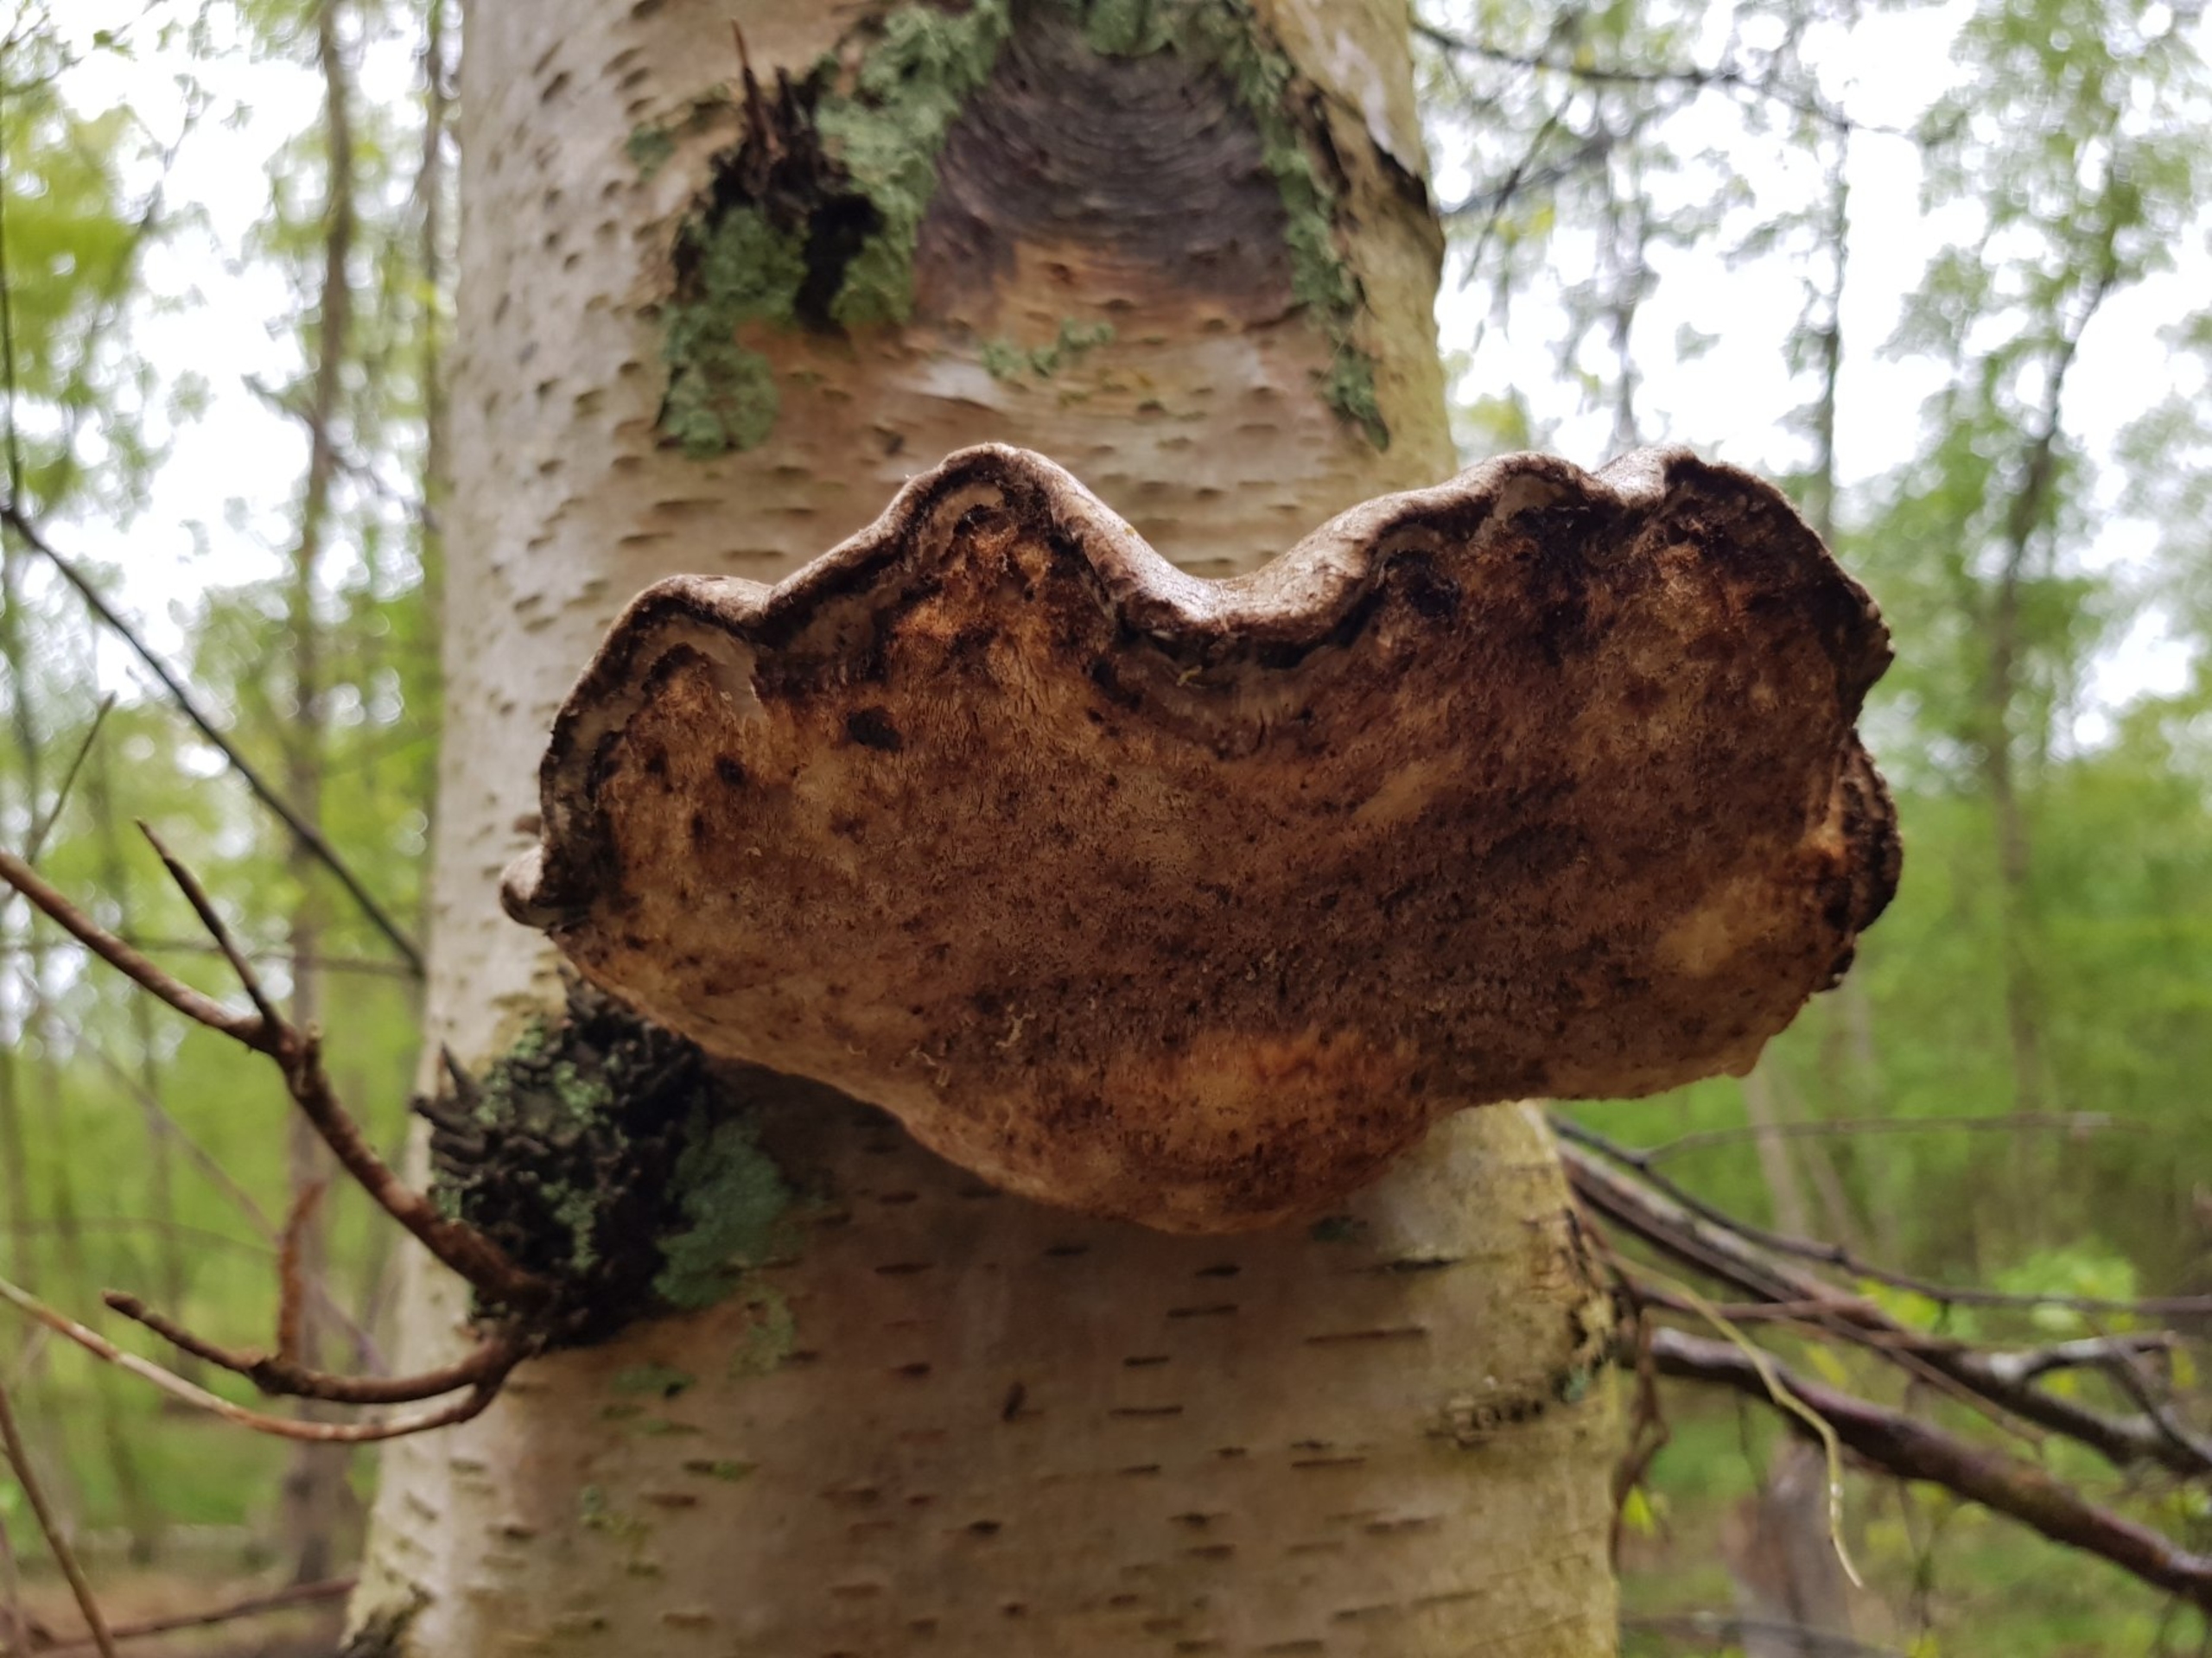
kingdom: Fungi
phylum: Basidiomycota
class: Agaricomycetes
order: Polyporales
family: Fomitopsidaceae
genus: Fomitopsis
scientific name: Fomitopsis betulina
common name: Birkeporesvamp
